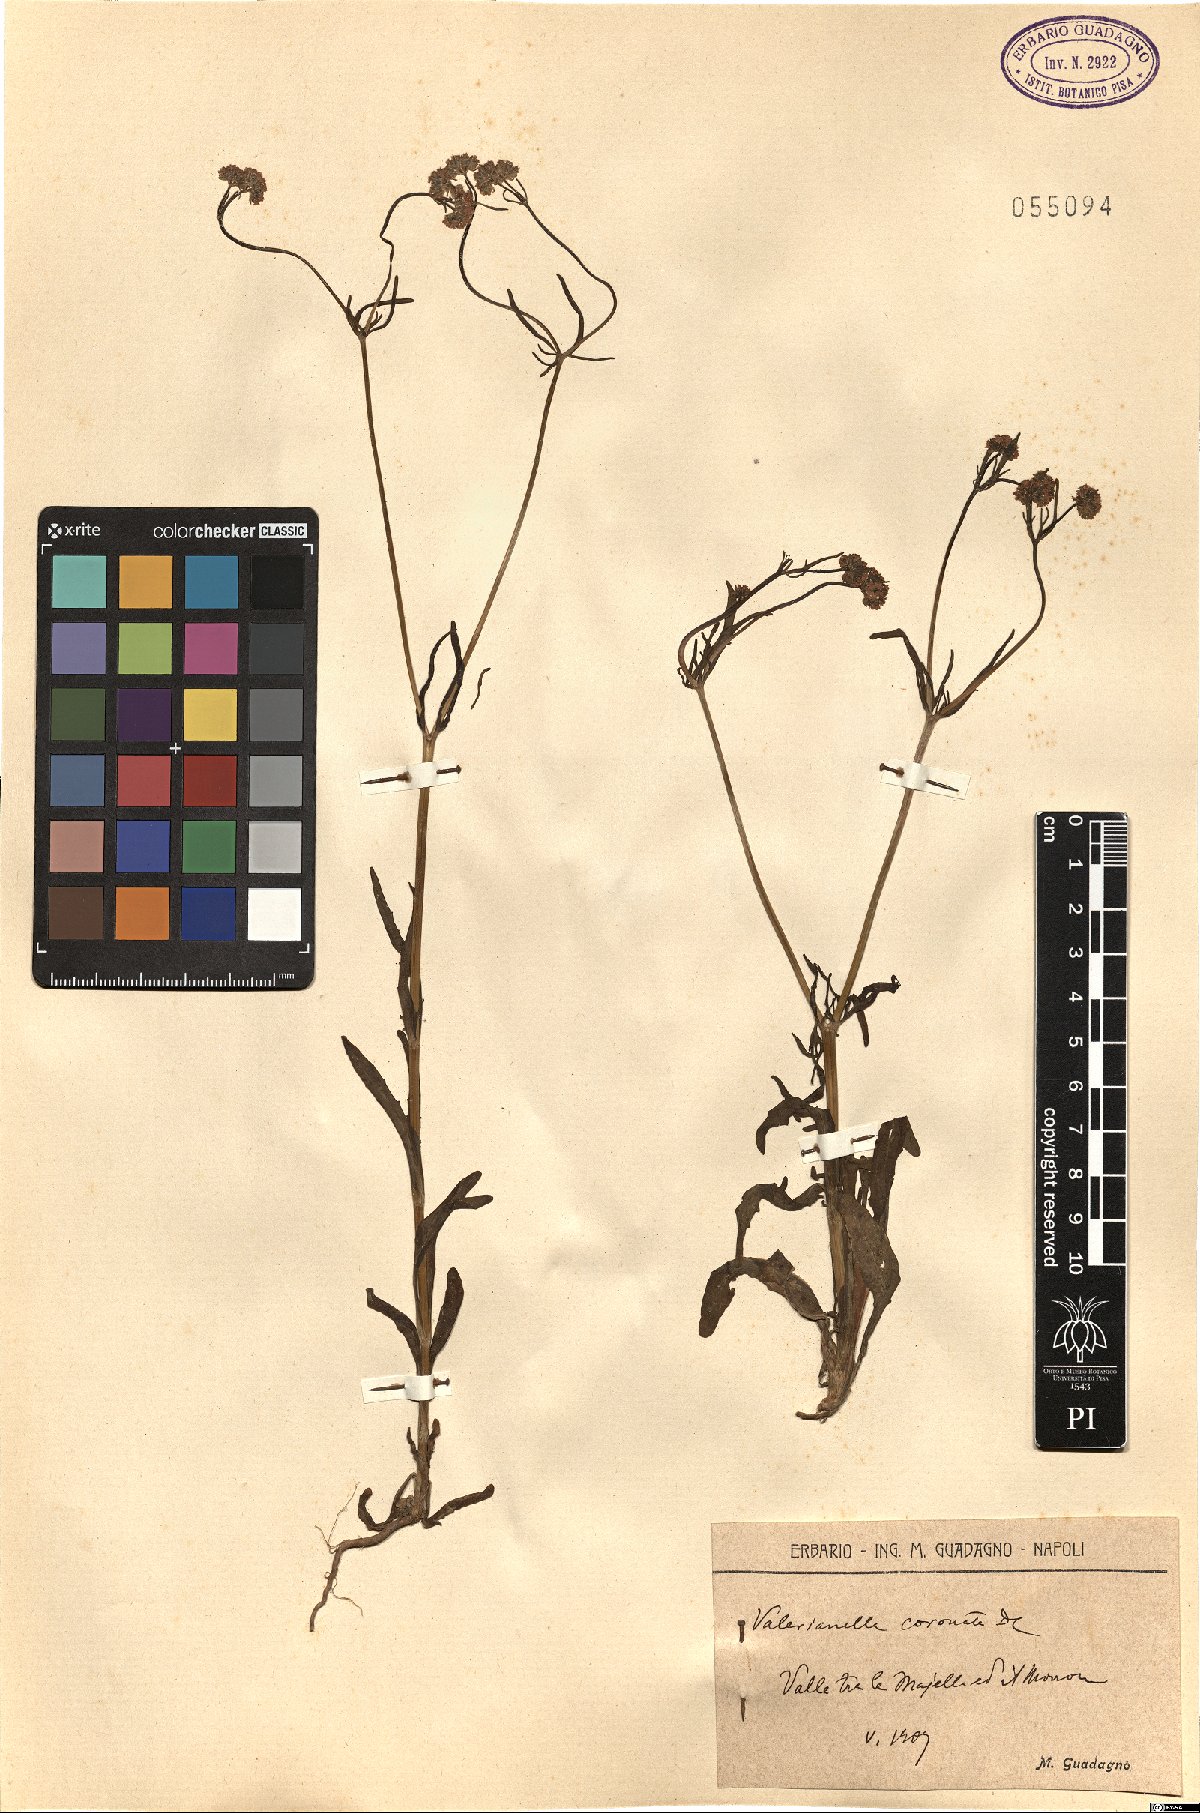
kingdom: Plantae
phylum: Tracheophyta
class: Magnoliopsida
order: Dipsacales
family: Caprifoliaceae
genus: Valerianella
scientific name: Valerianella coronata
